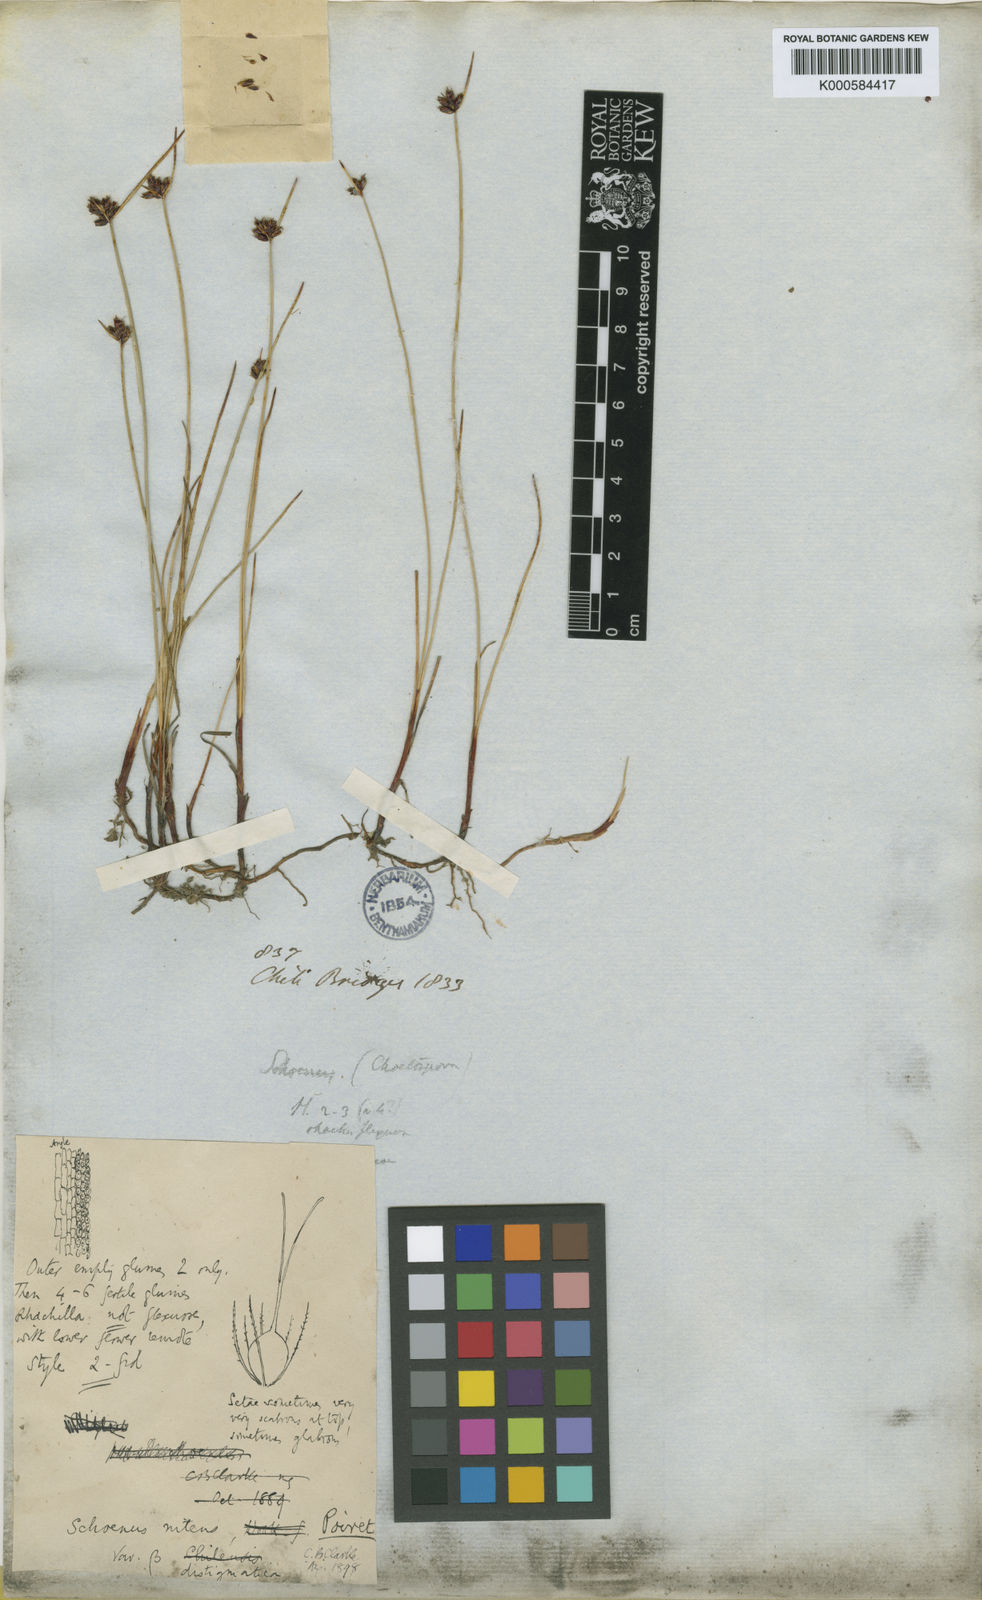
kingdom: Plantae
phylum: Tracheophyta
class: Liliopsida
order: Poales
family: Cyperaceae
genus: Schoenus
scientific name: Schoenus
